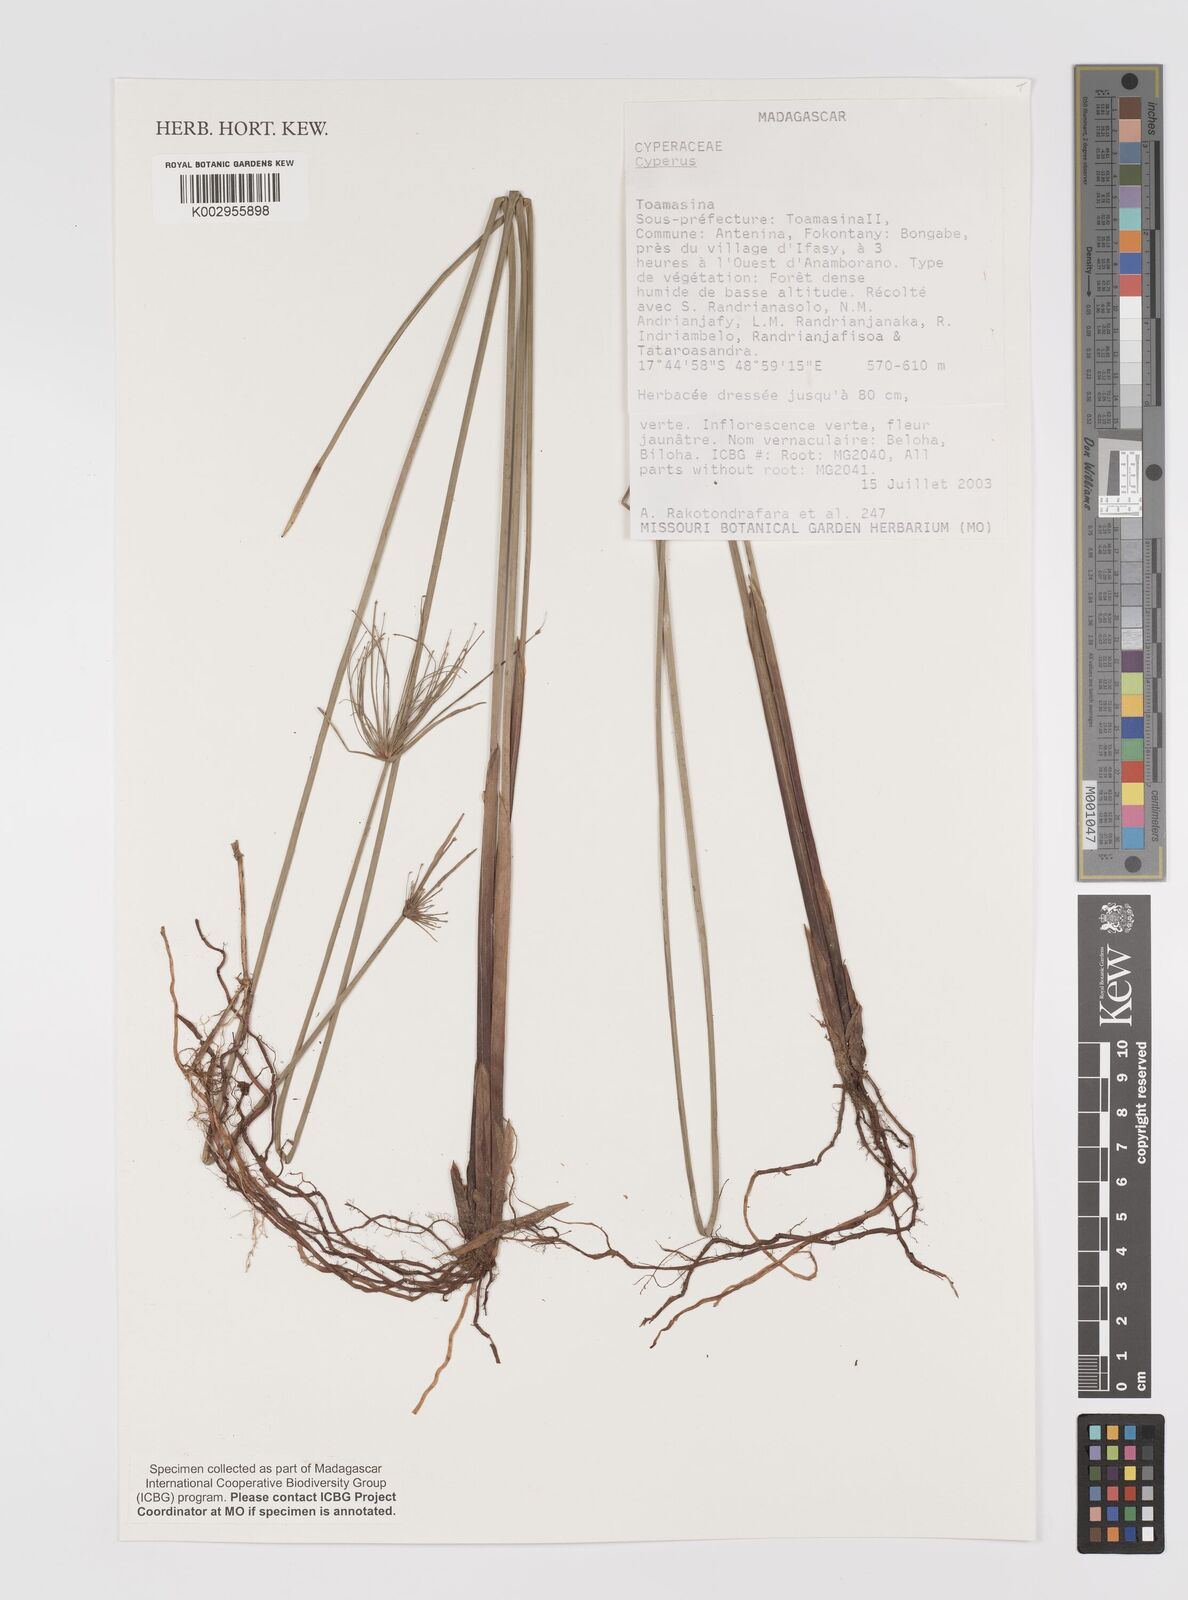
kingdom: Plantae
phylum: Tracheophyta
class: Liliopsida
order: Poales
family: Cyperaceae
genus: Cyperus
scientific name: Cyperus
